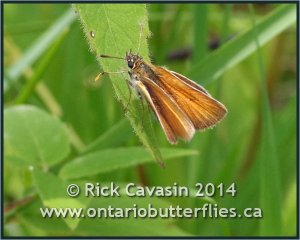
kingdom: Animalia
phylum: Arthropoda
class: Insecta
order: Lepidoptera
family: Hesperiidae
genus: Thymelicus
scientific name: Thymelicus lineola
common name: European Skipper
